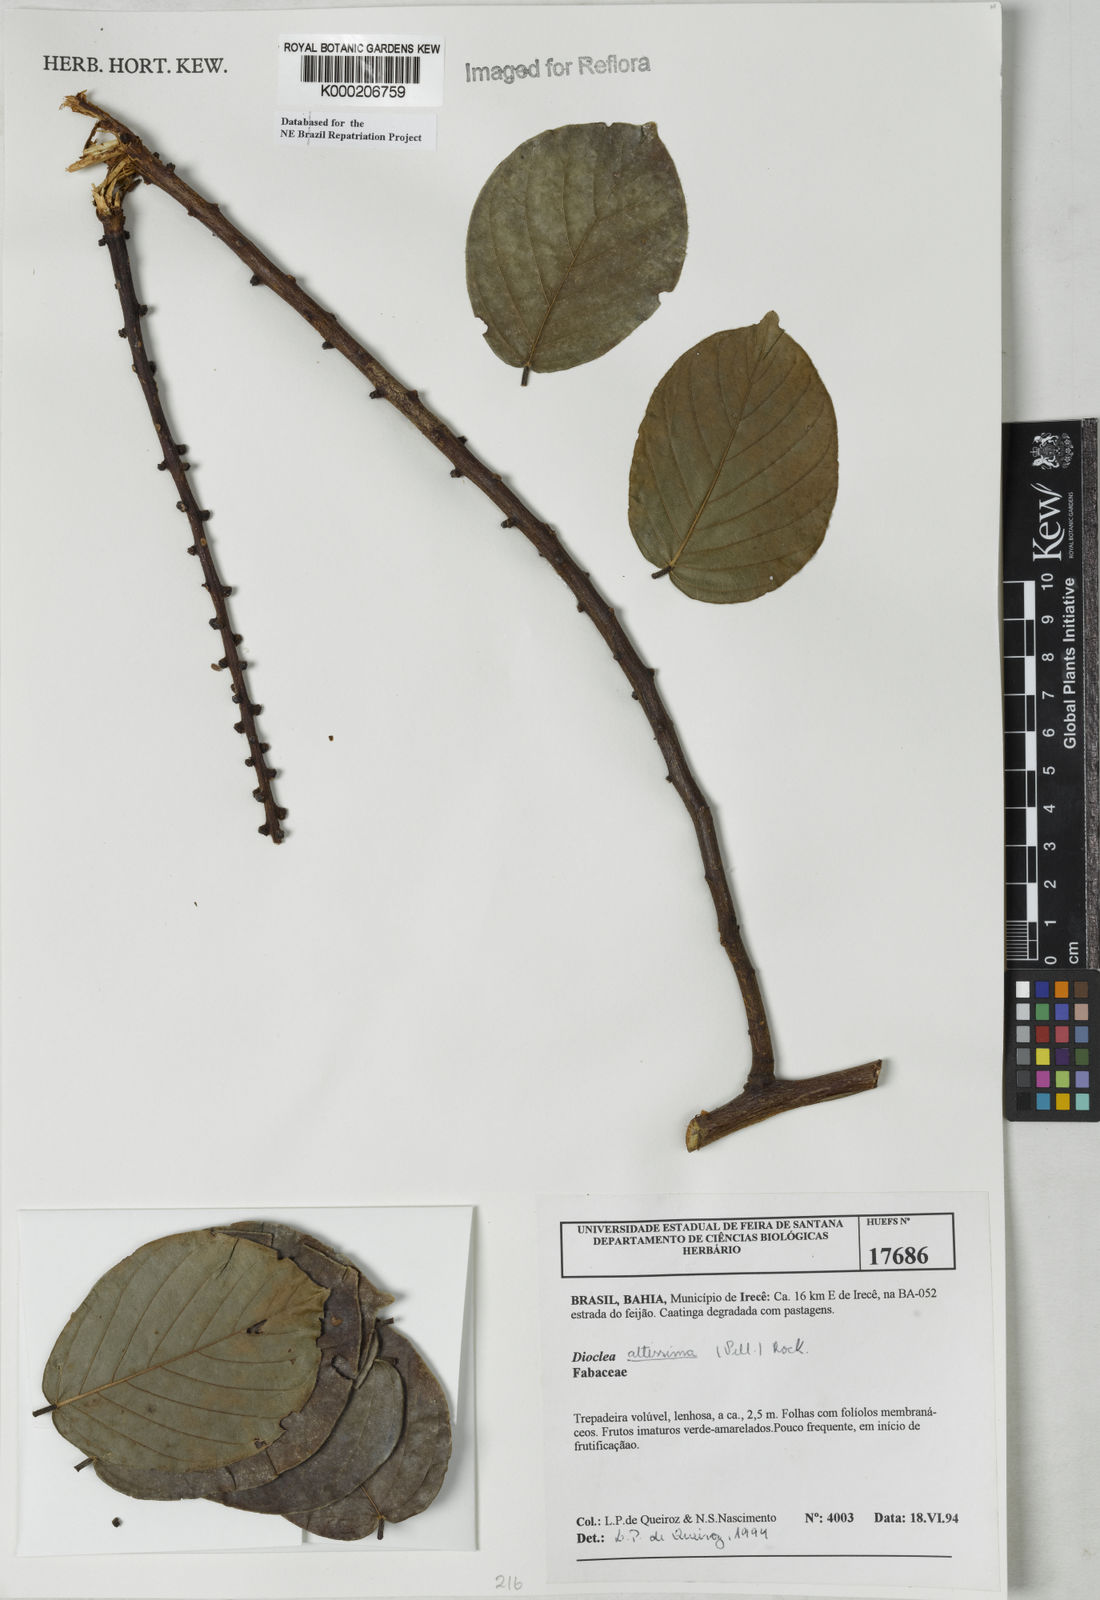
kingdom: Plantae
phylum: Tracheophyta
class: Magnoliopsida
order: Fabales
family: Fabaceae
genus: Macropsychanthus
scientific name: Macropsychanthus violaceus
